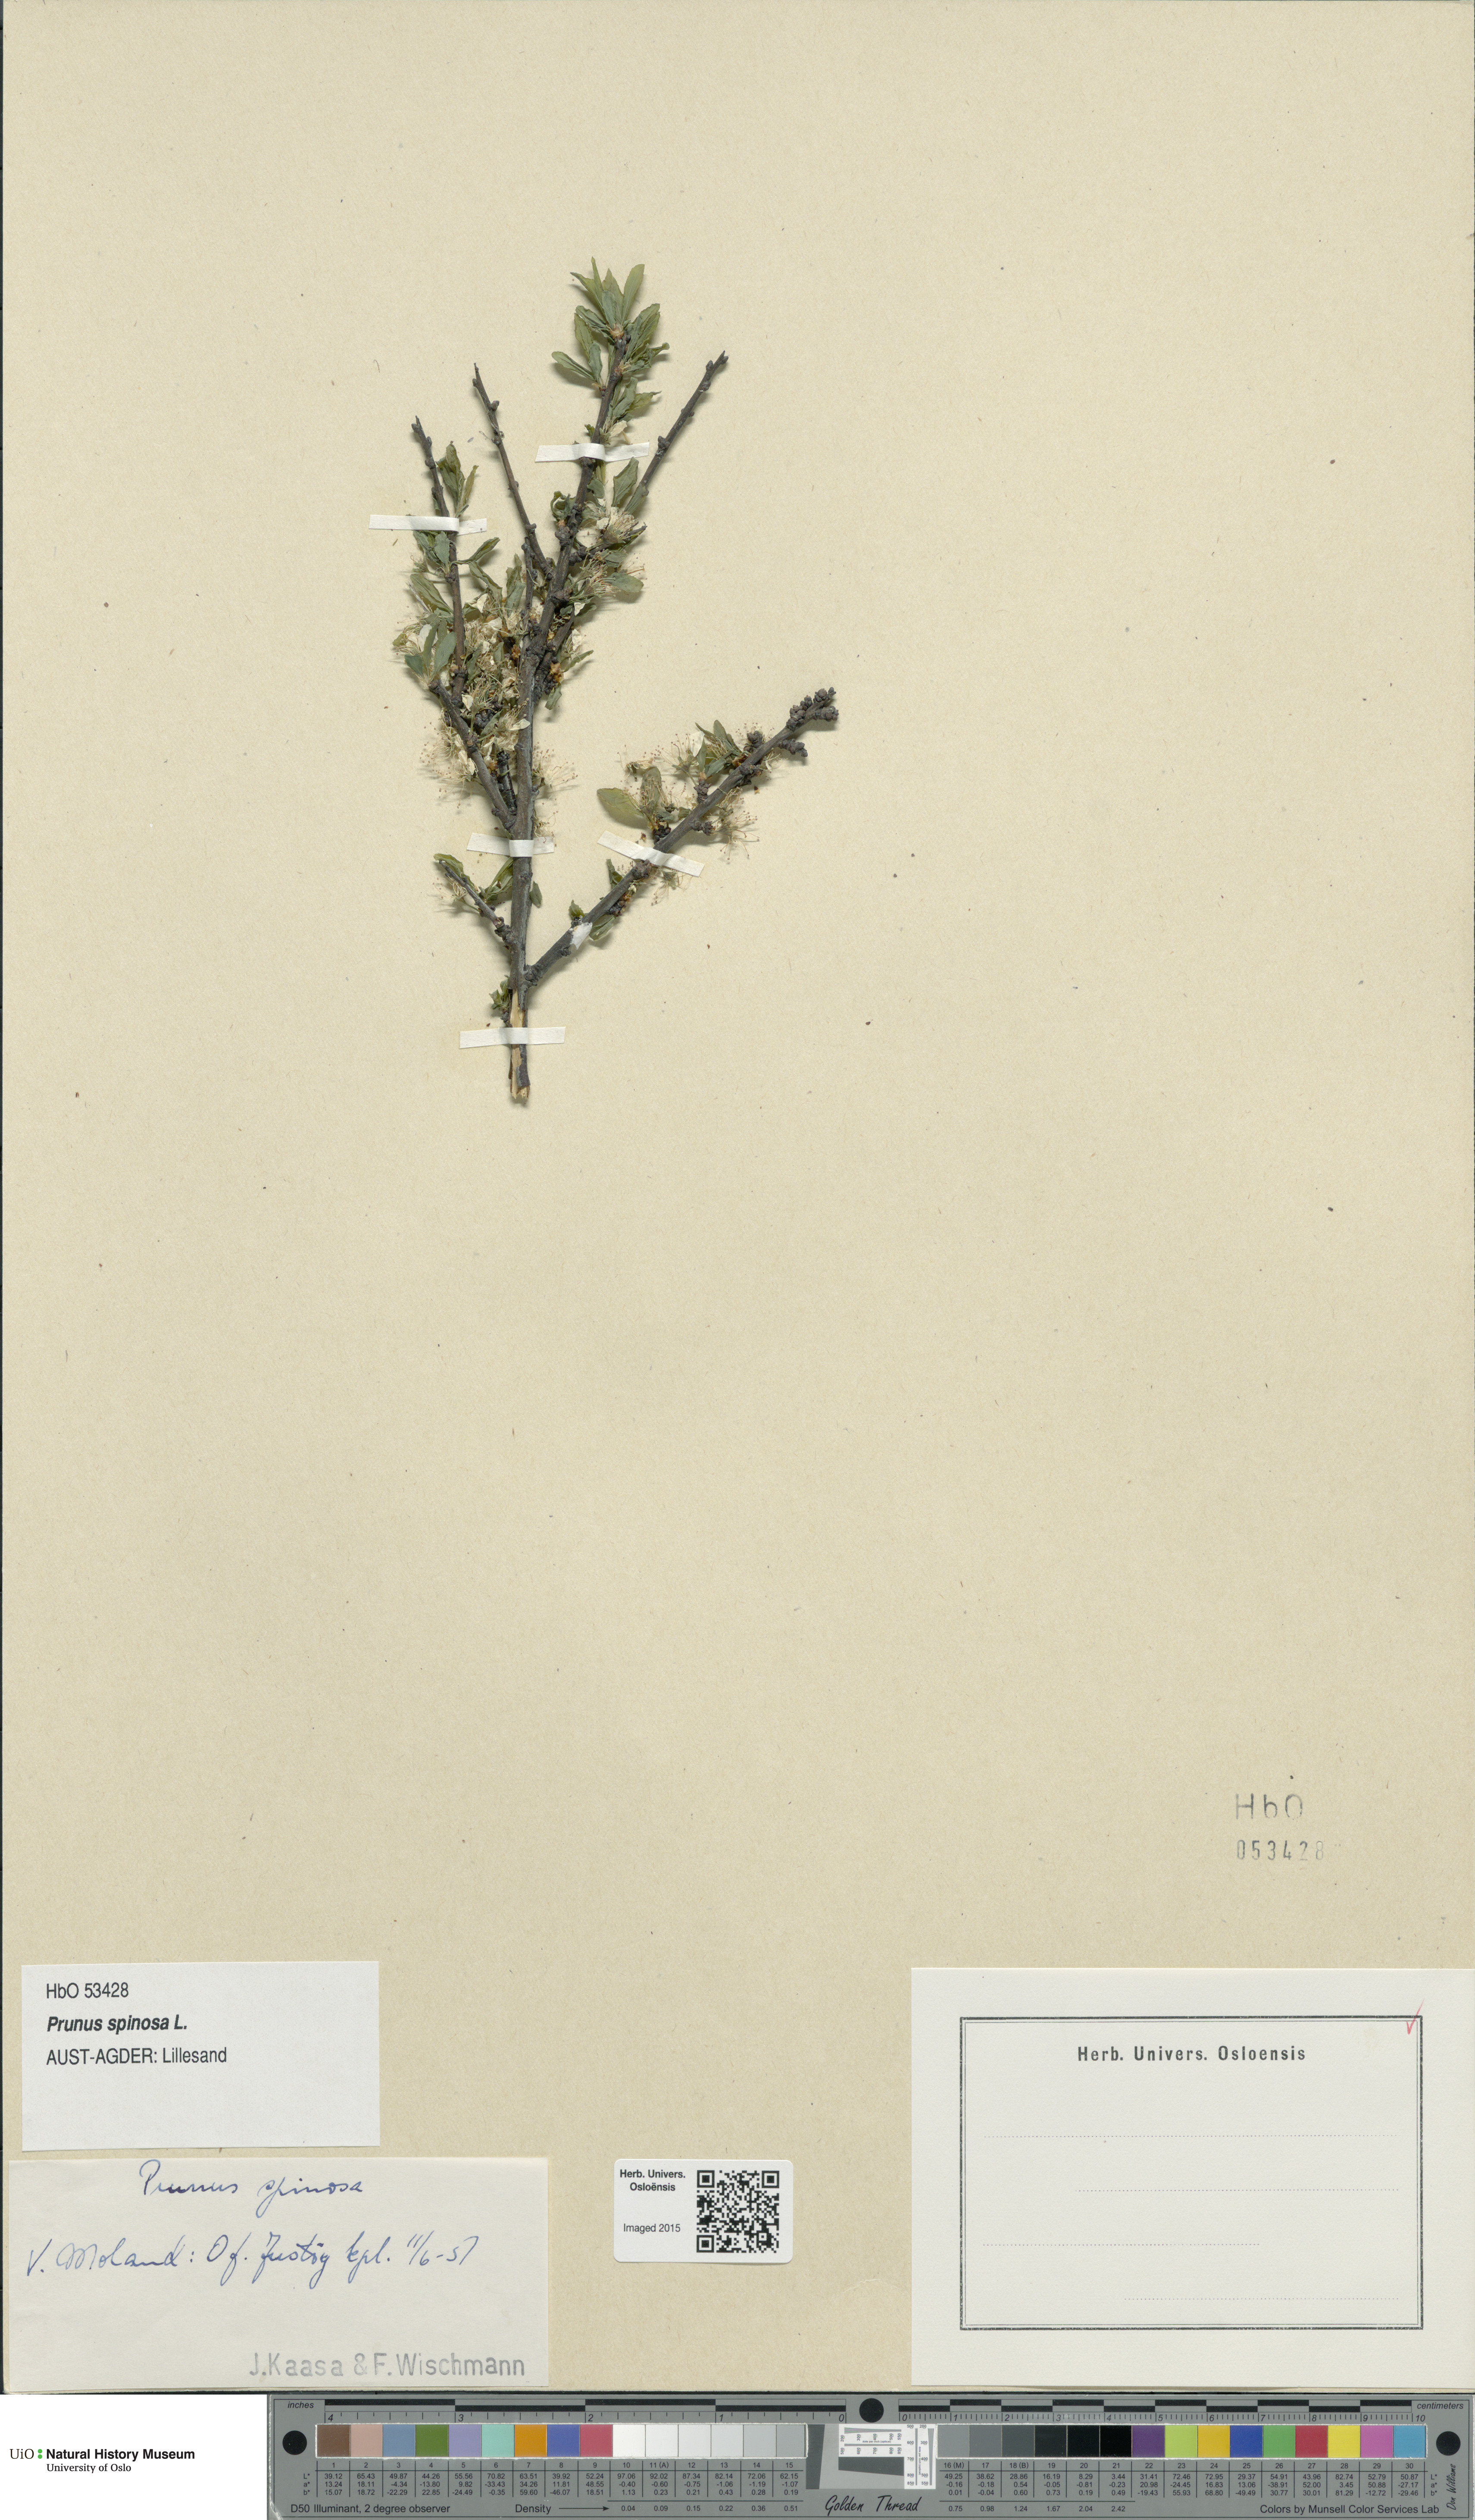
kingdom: Plantae
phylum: Tracheophyta
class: Magnoliopsida
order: Rosales
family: Rosaceae
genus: Prunus
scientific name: Prunus spinosa
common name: Blackthorn
